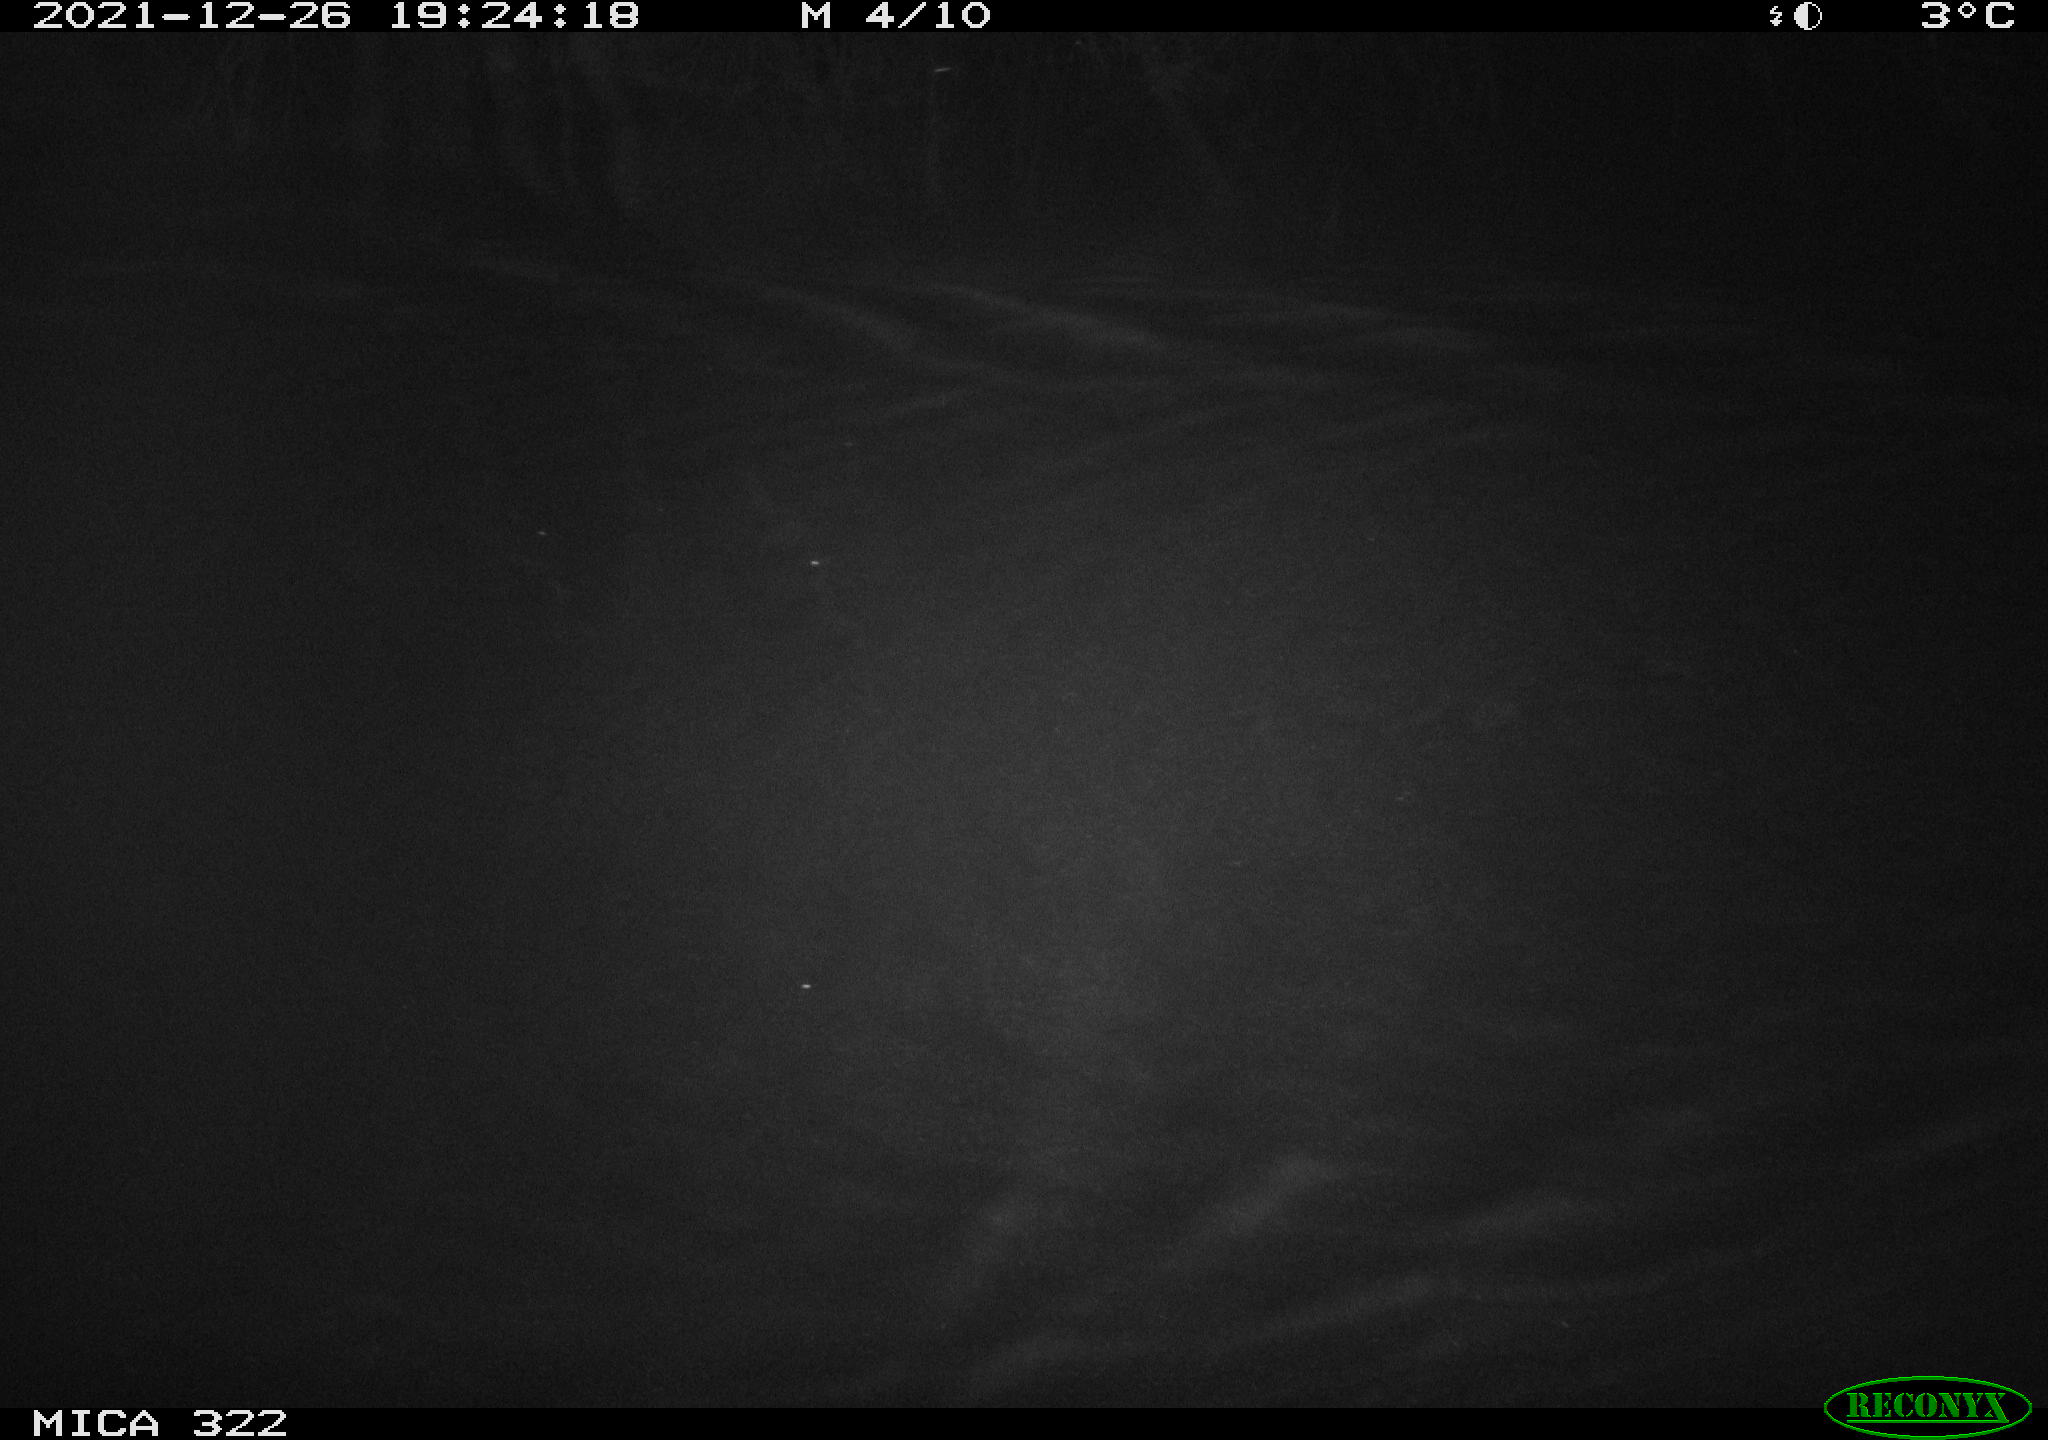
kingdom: Animalia
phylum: Chordata
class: Mammalia
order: Rodentia
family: Muridae
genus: Rattus
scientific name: Rattus norvegicus
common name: Brown rat
